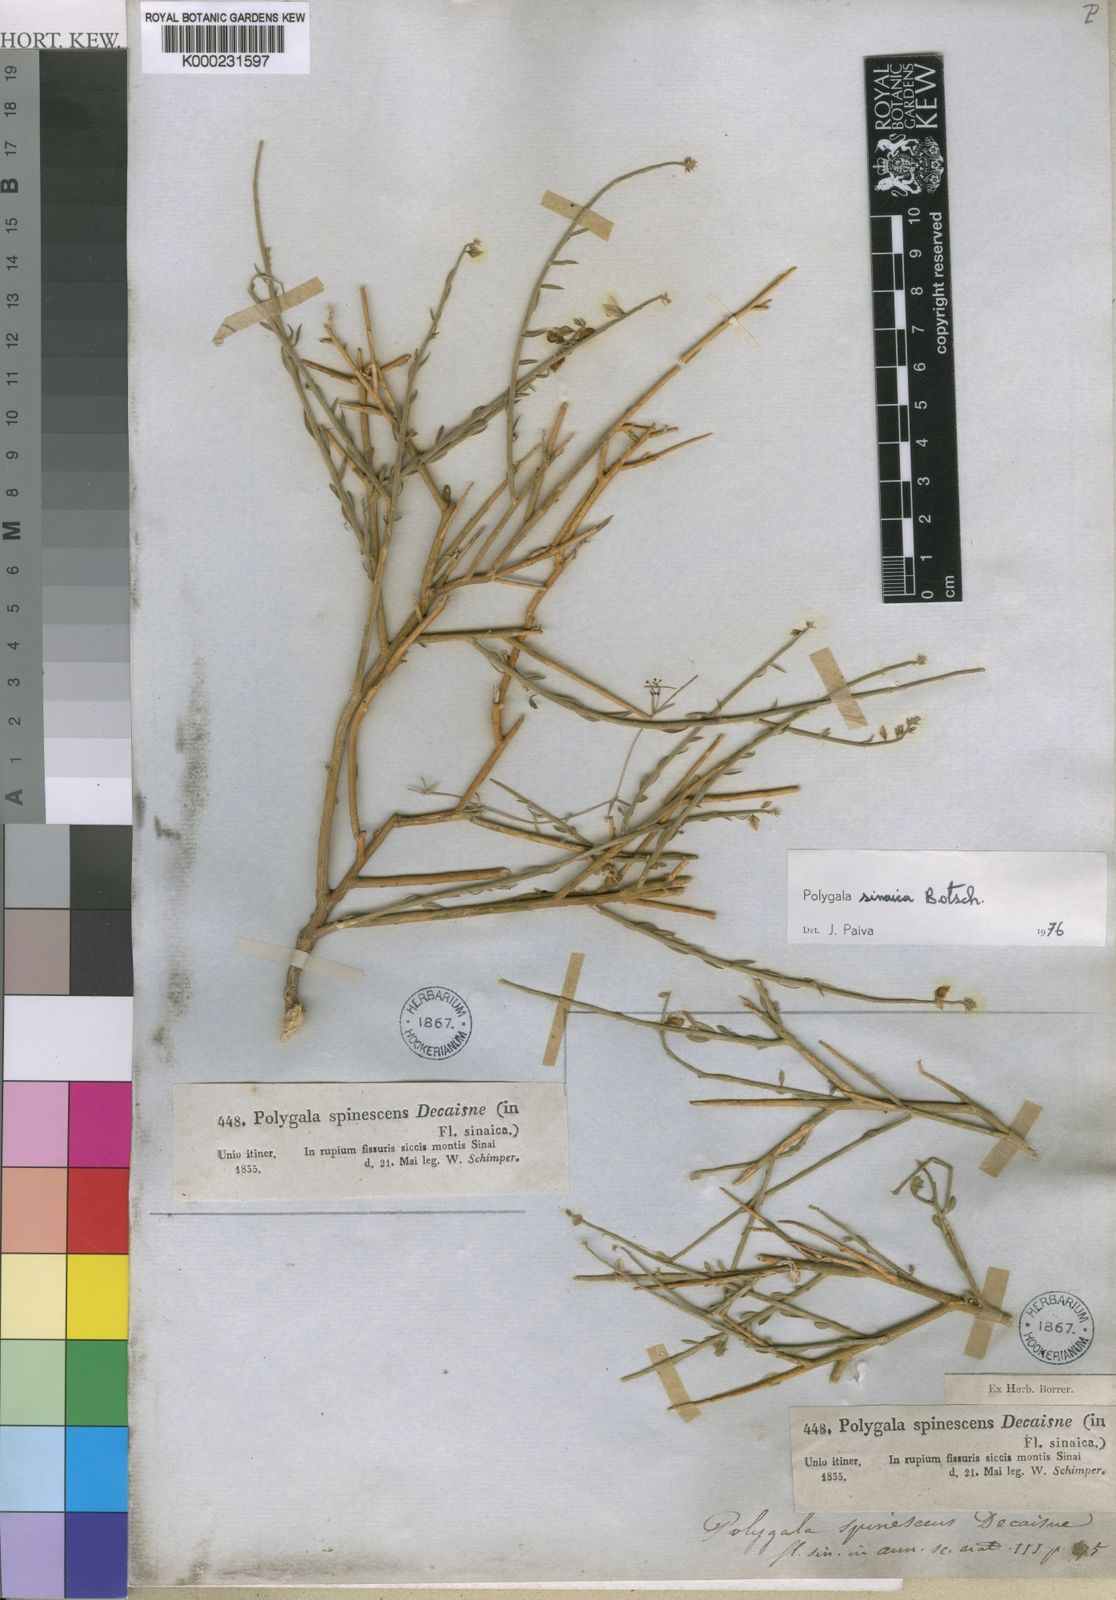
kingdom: Plantae
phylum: Tracheophyta
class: Magnoliopsida
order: Fabales
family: Polygalaceae
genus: Polygala
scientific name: Polygala sinaica
